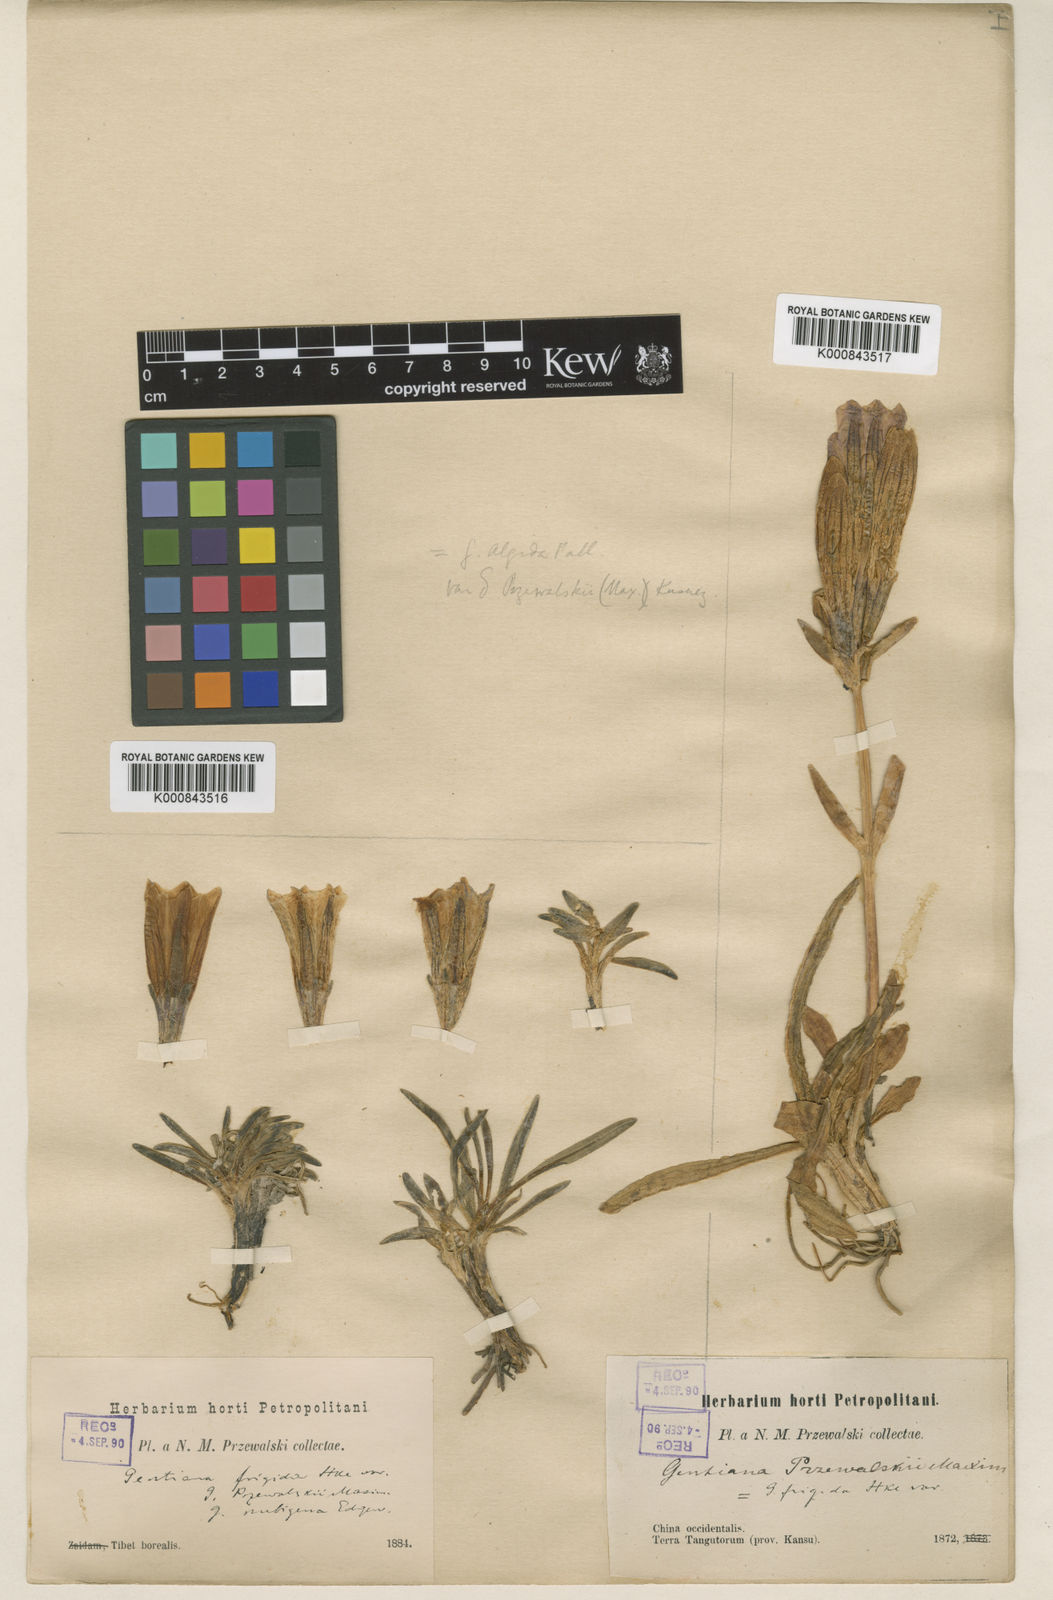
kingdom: Plantae
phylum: Tracheophyta
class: Magnoliopsida
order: Gentianales
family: Gentianaceae
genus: Gentiana
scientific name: Gentiana
